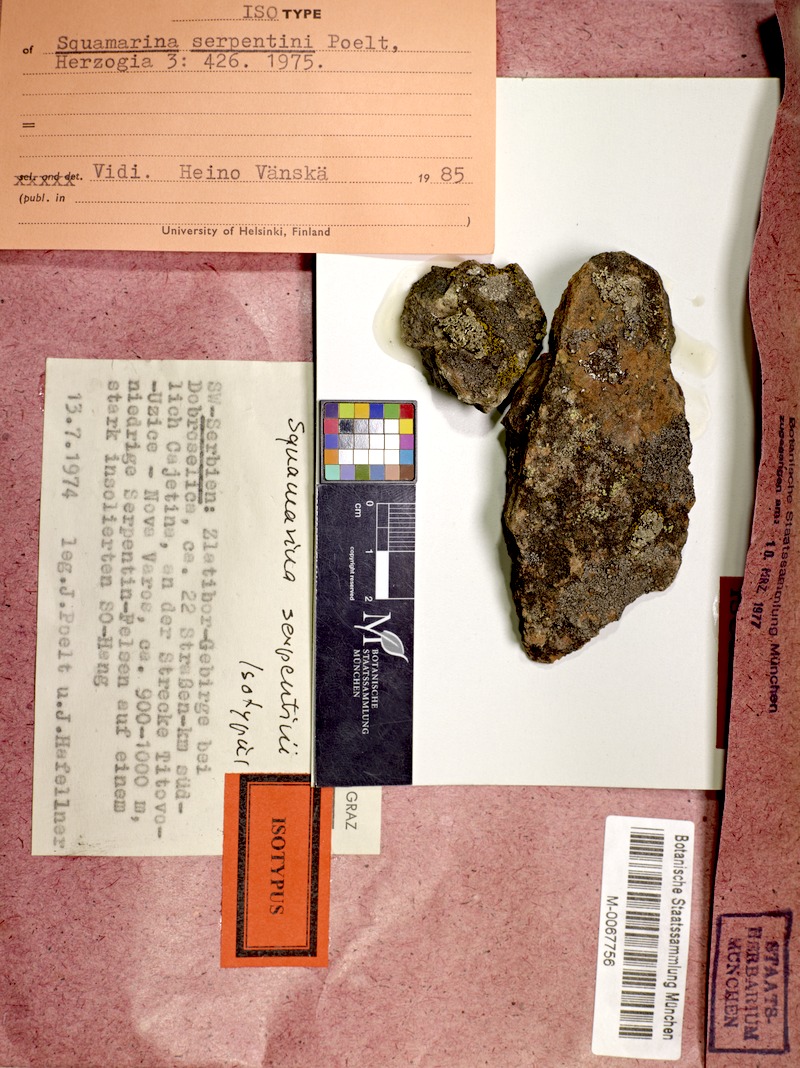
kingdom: Fungi
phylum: Ascomycota
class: Lecanoromycetes
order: Lecanorales
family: Stereocaulaceae
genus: Squamarina
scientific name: Squamarina serpentini
